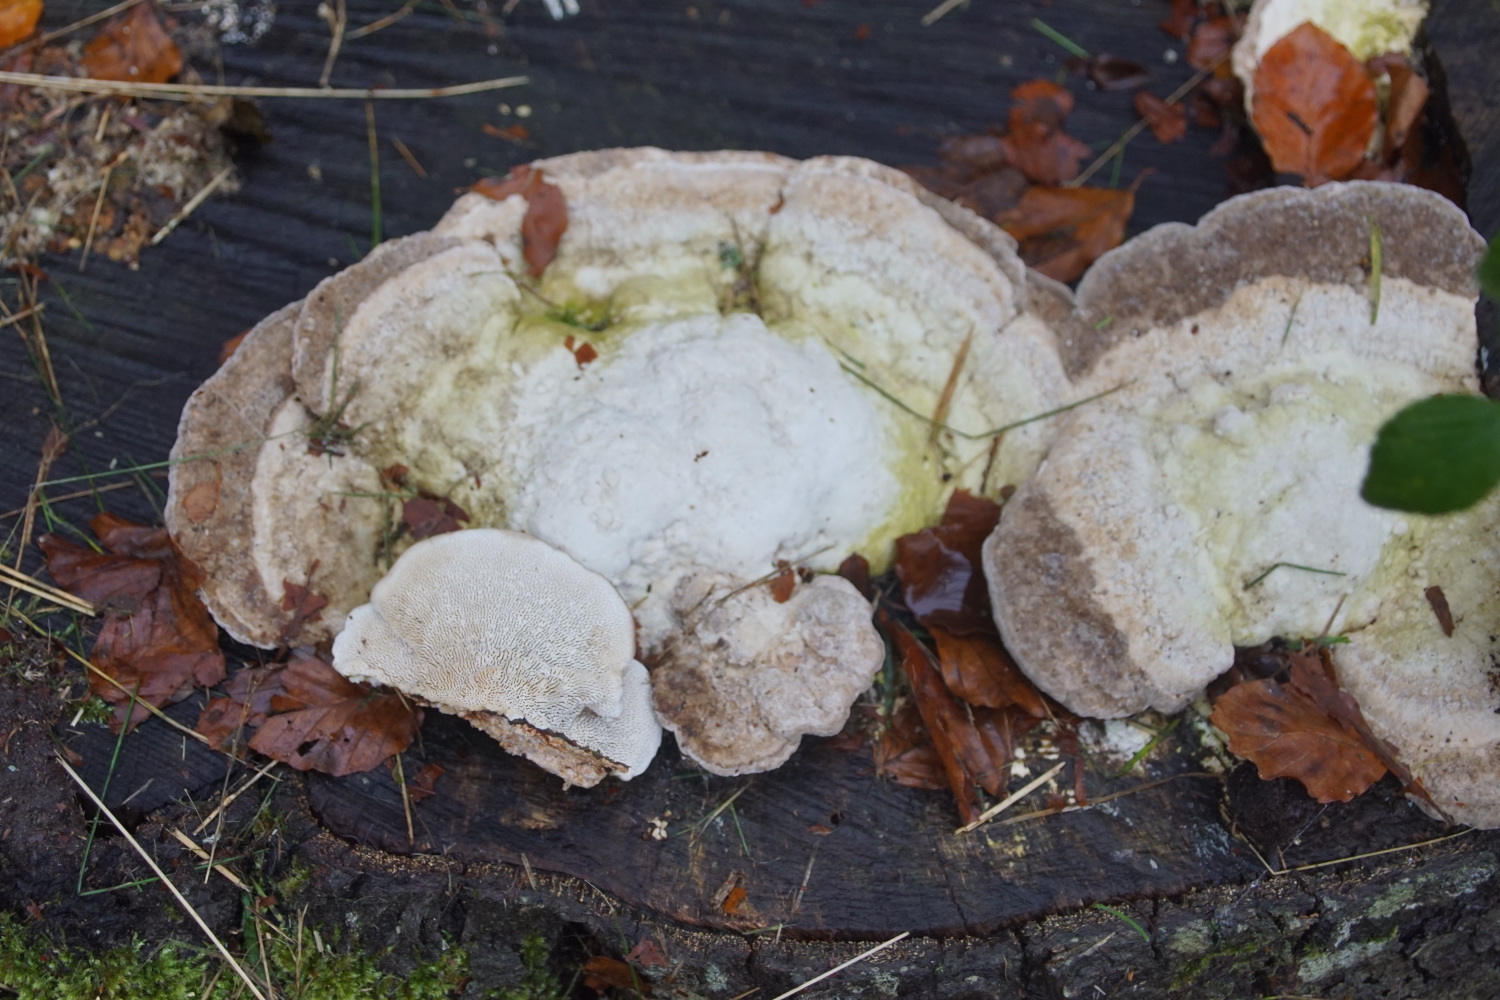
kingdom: Fungi
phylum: Basidiomycota
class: Agaricomycetes
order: Polyporales
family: Polyporaceae
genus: Trametes
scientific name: Trametes gibbosa
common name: puklet læderporesvamp
